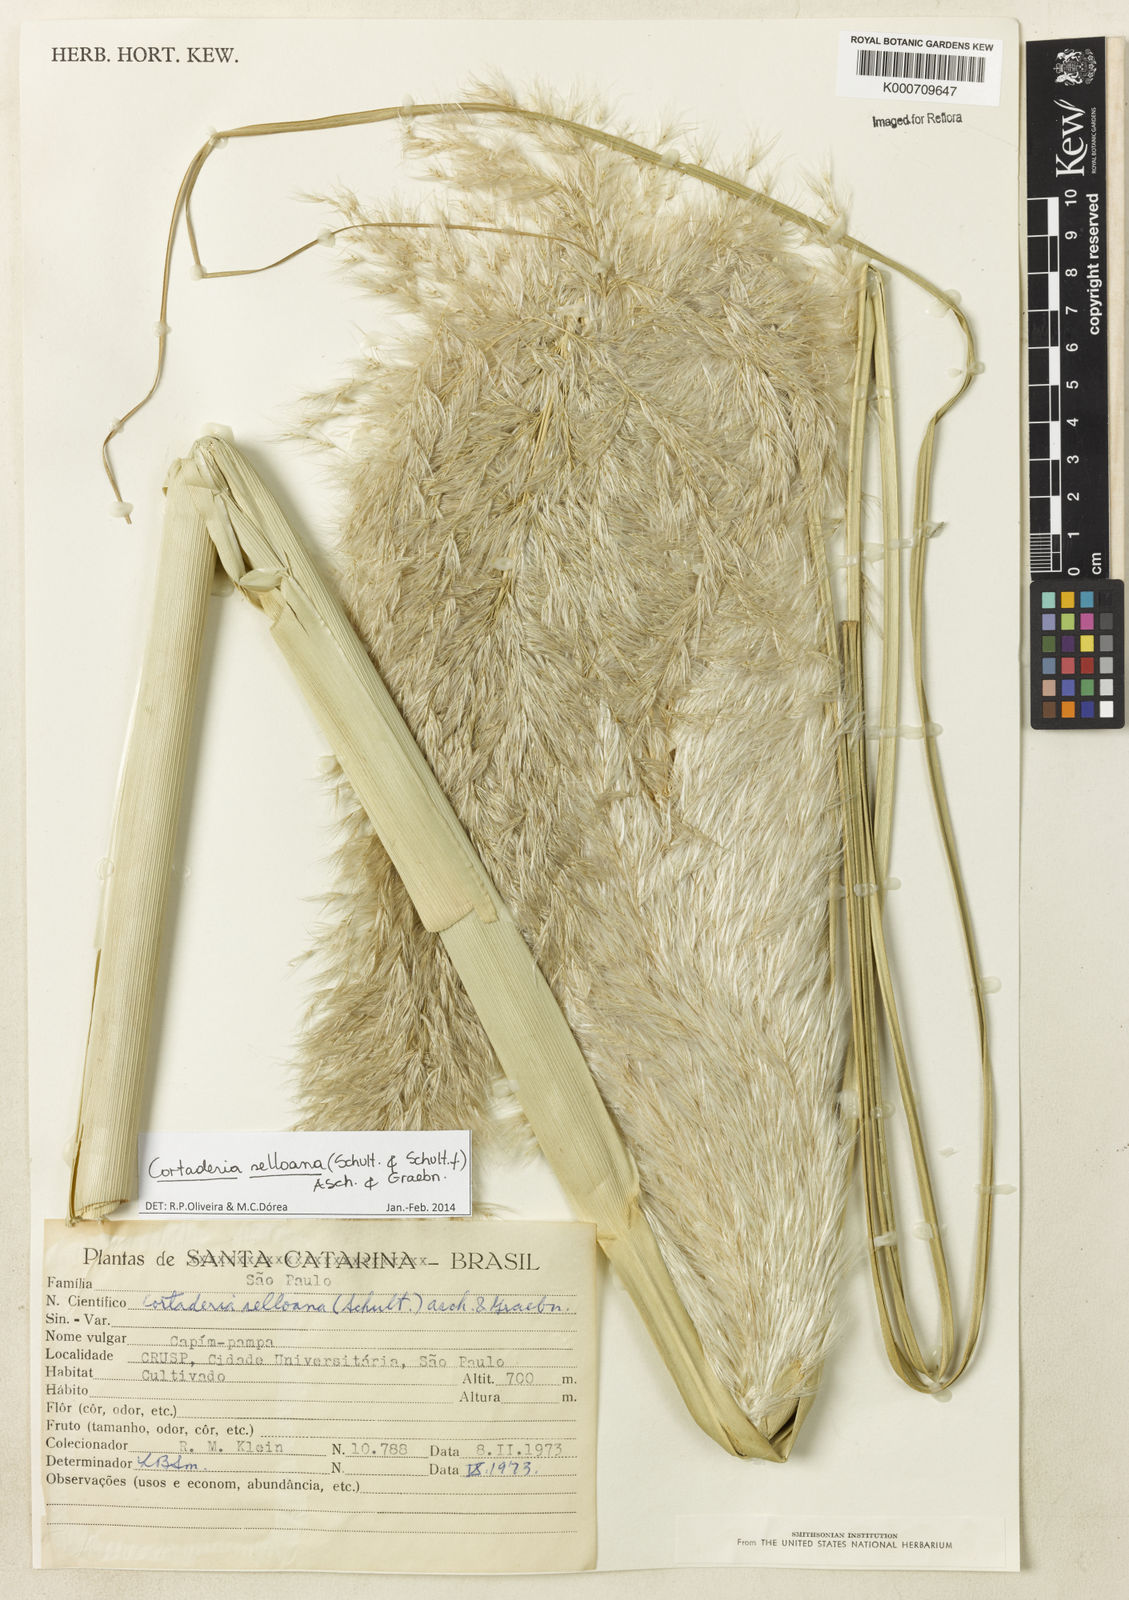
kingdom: Plantae
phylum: Tracheophyta
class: Liliopsida
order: Poales
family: Poaceae
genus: Cortaderia
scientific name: Cortaderia selloana
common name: Uruguayan pampas grass
